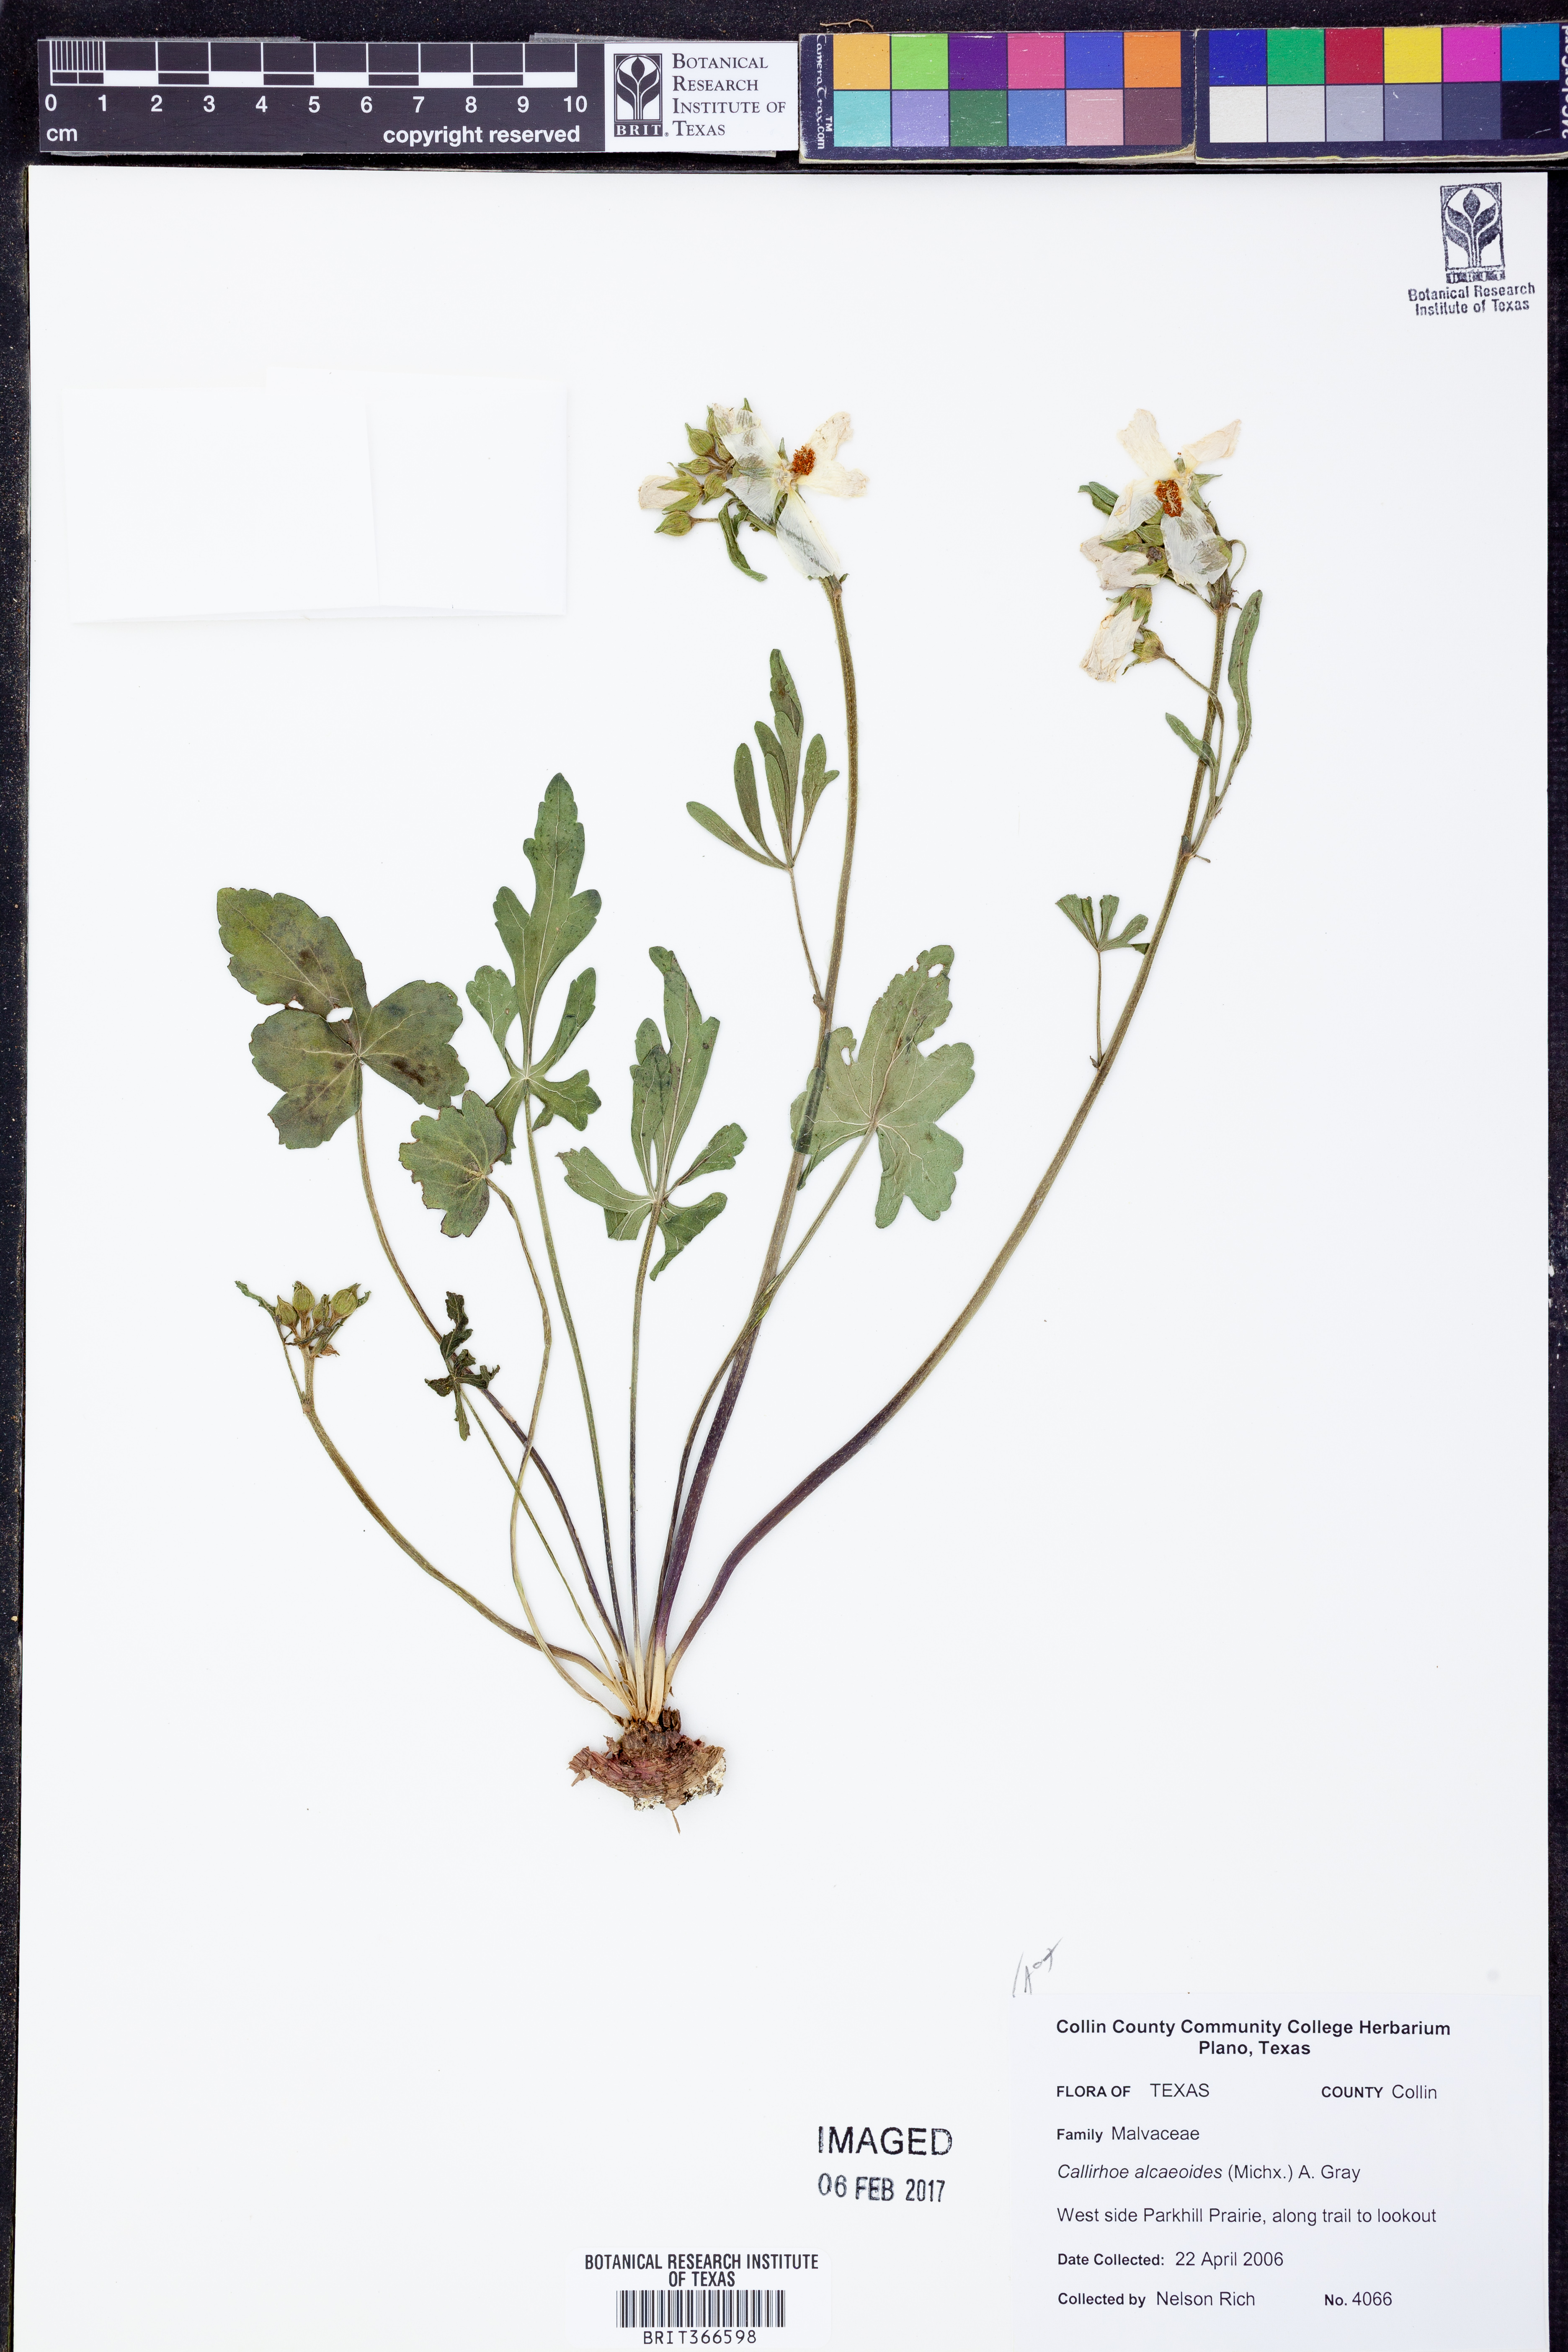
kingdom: Plantae
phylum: Tracheophyta
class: Magnoliopsida
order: Malvales
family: Malvaceae
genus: Callirhoe
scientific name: Callirhoe alcaeoides
